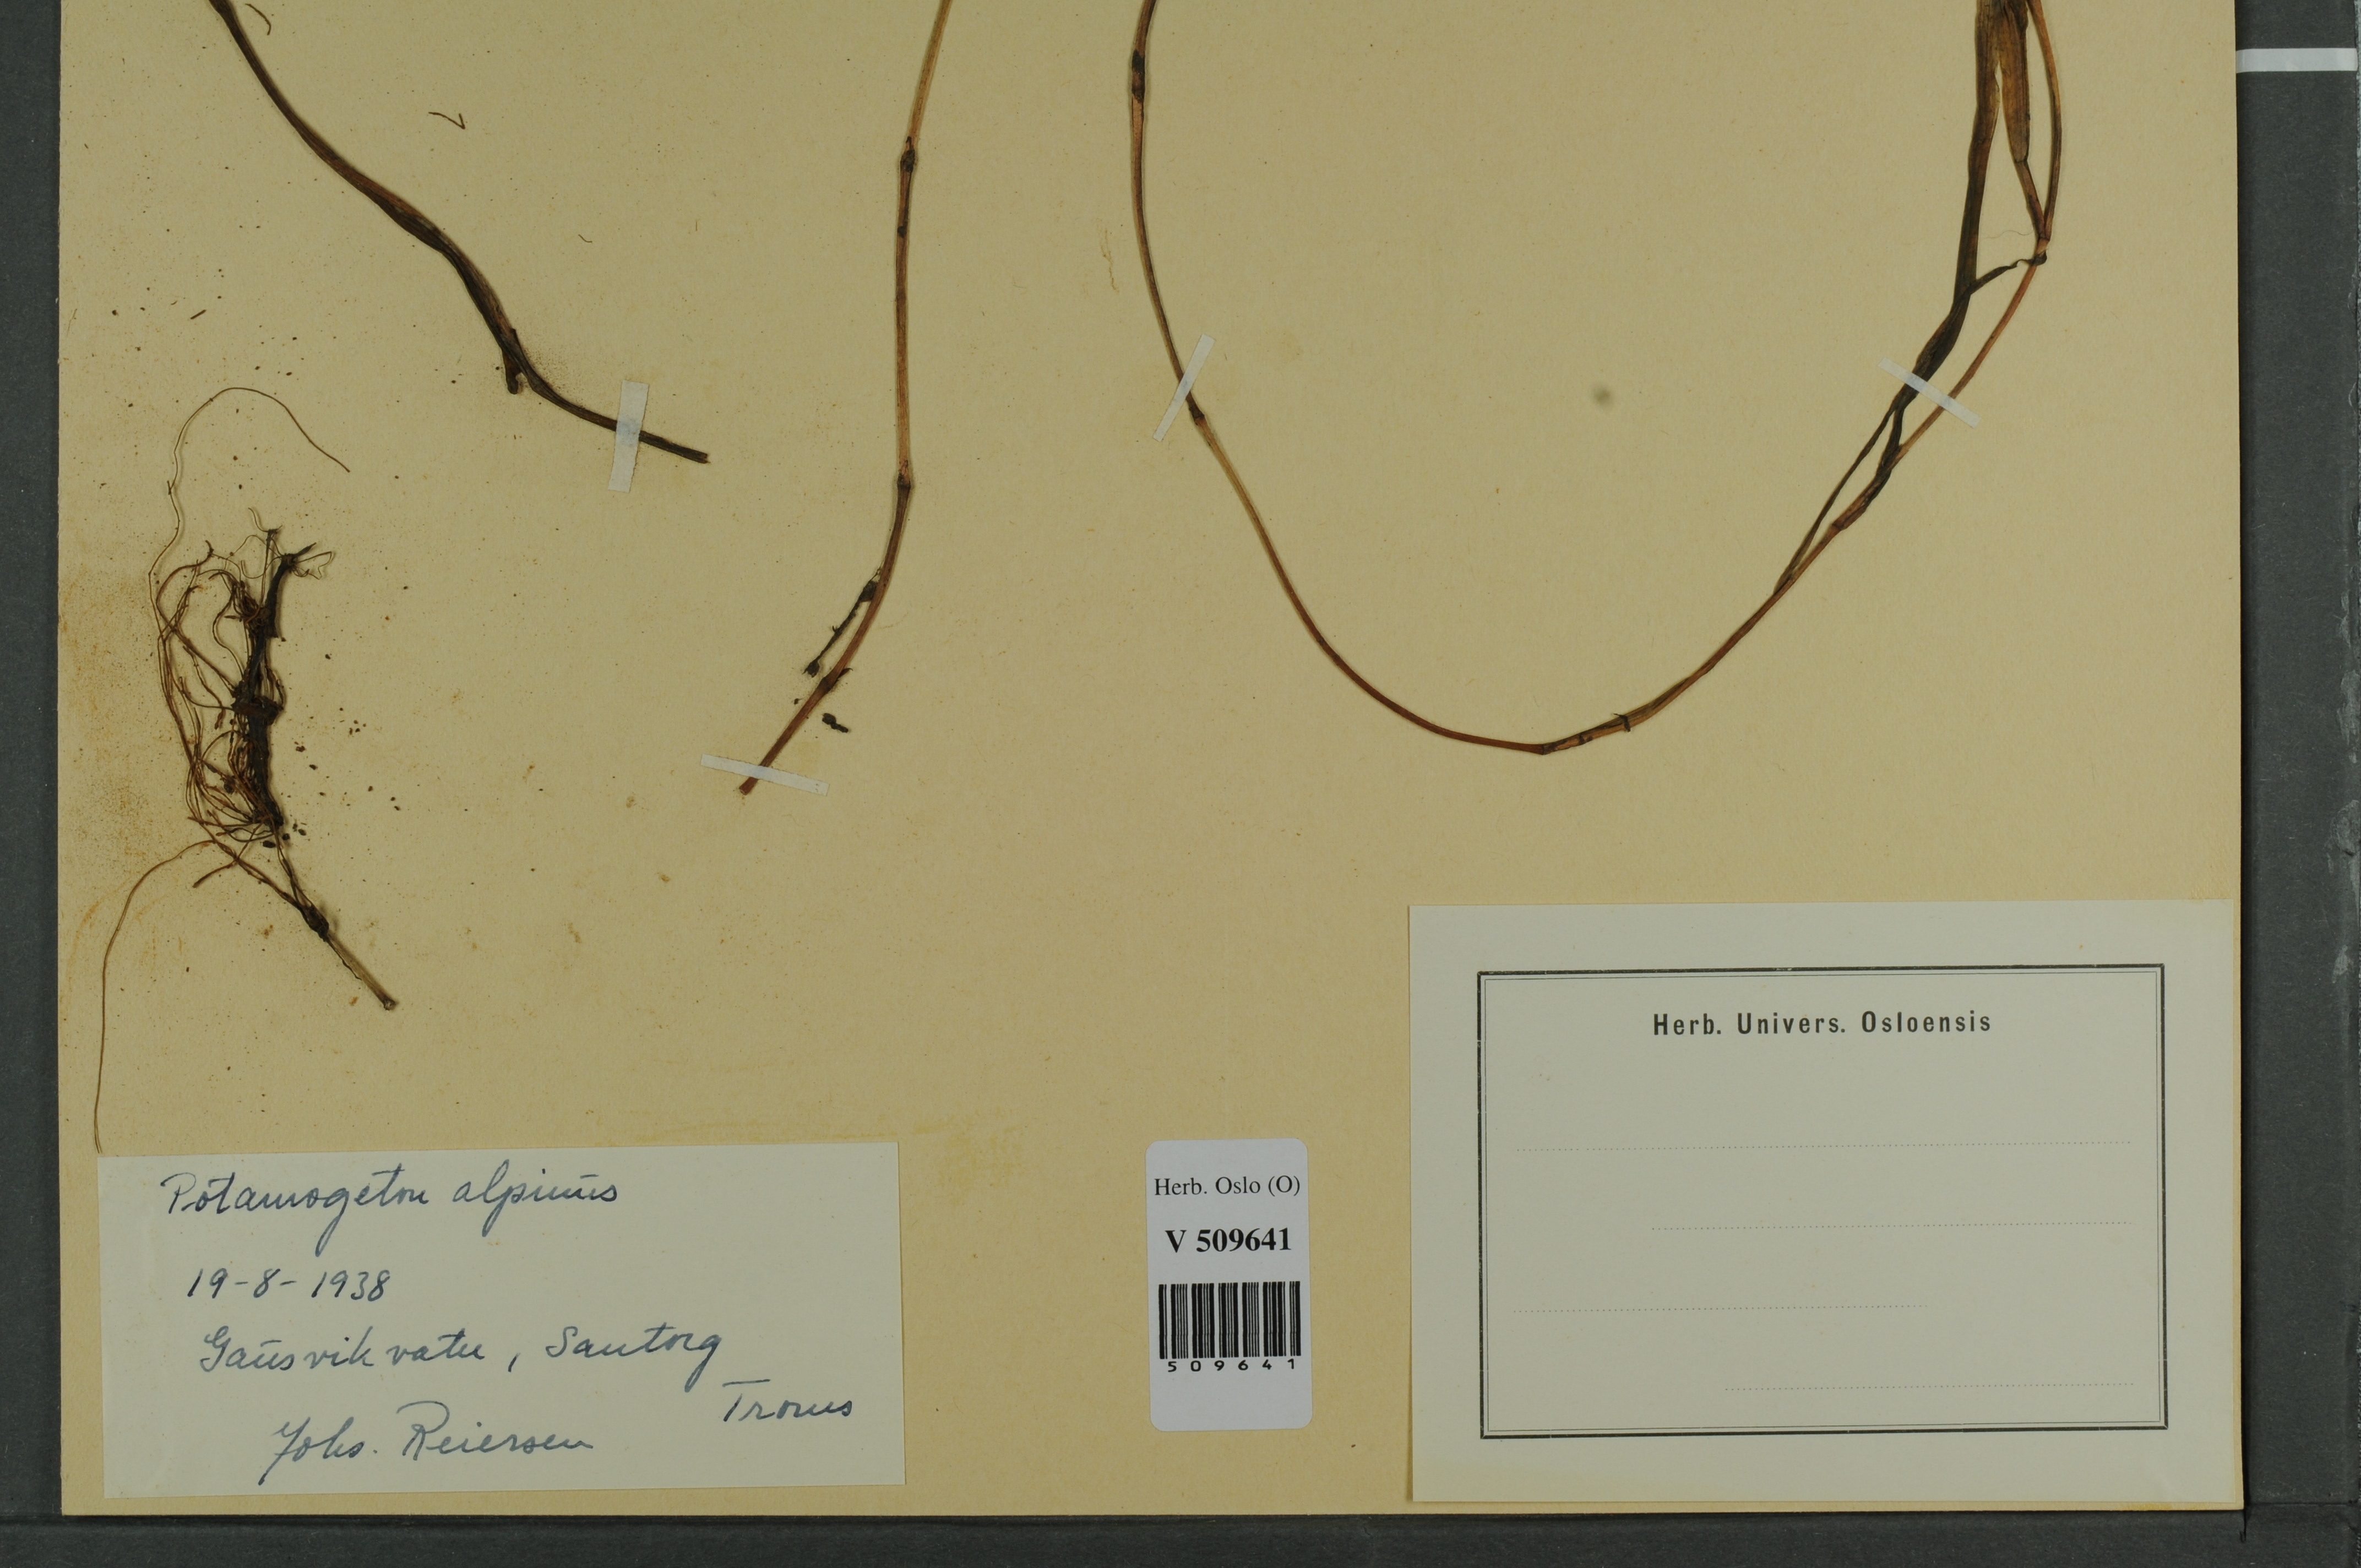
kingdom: Plantae
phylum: Tracheophyta
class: Liliopsida
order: Alismatales
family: Potamogetonaceae
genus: Potamogeton
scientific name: Potamogeton alpinus
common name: Red pondweed
